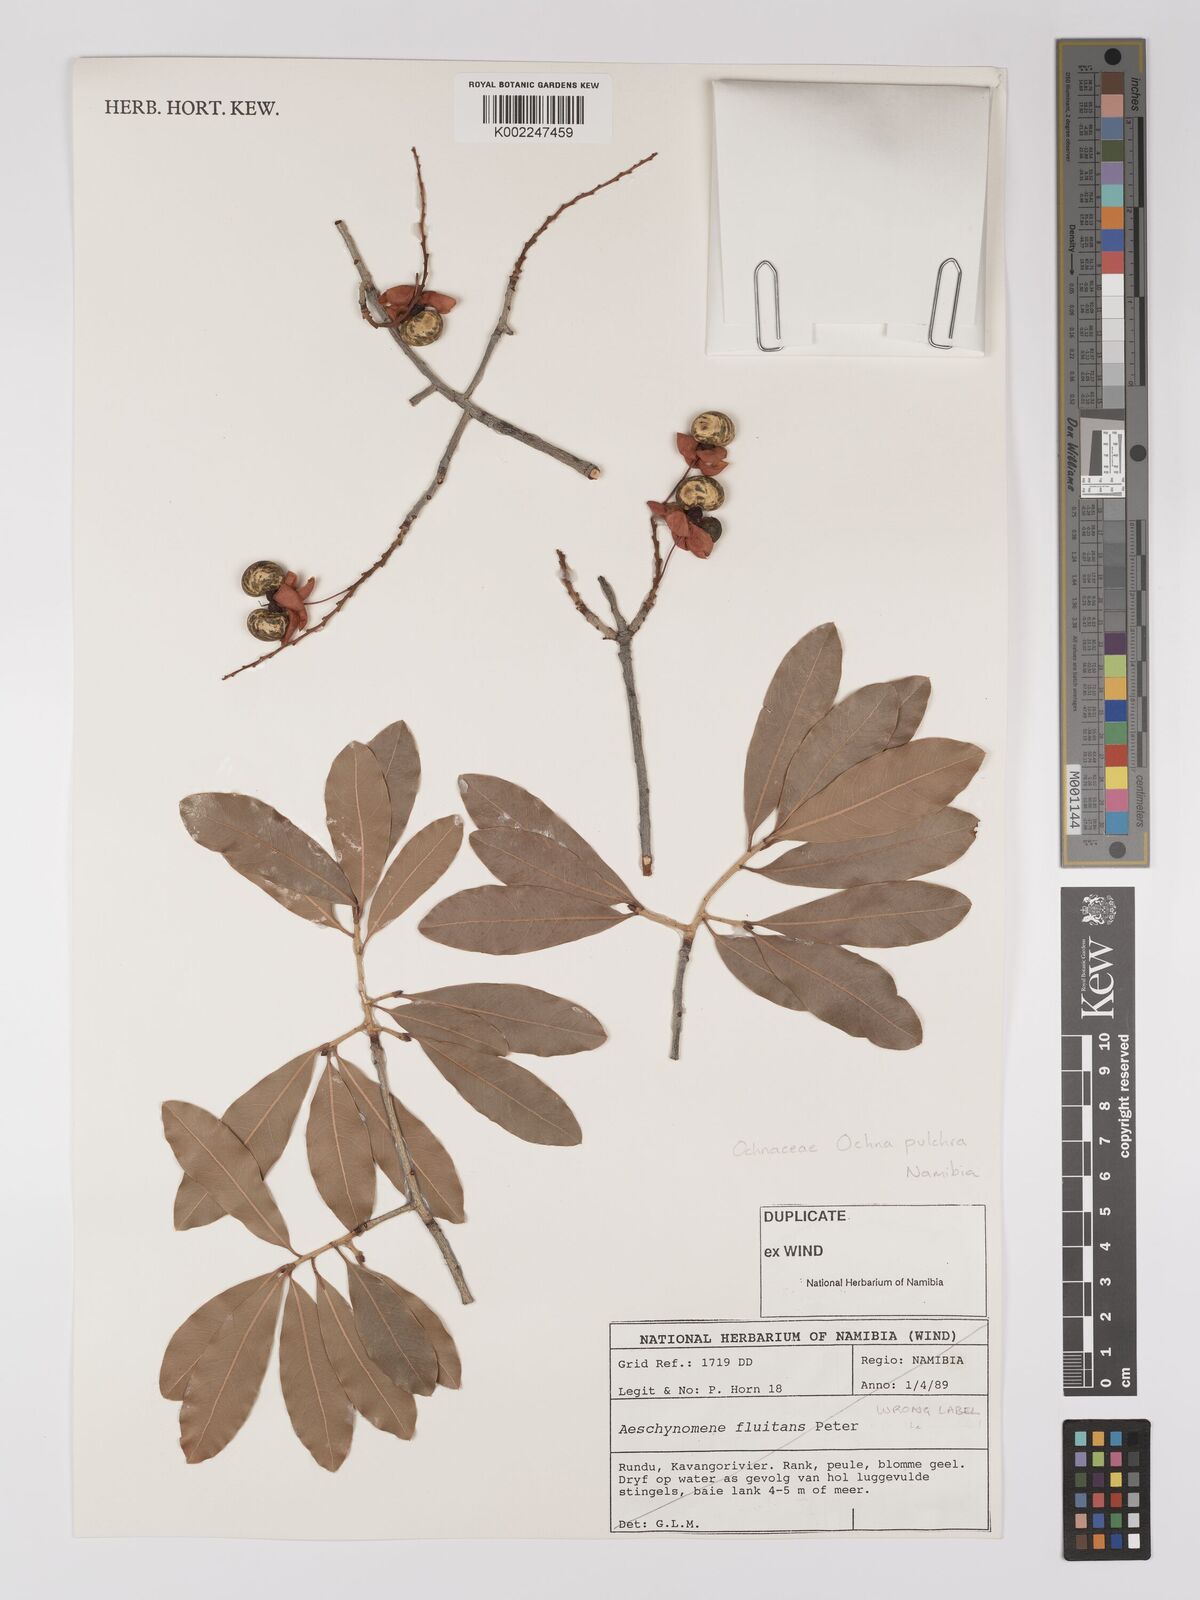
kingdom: Plantae
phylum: Tracheophyta
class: Magnoliopsida
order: Malpighiales
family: Ochnaceae
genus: Ochna
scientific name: Ochna pulchra
